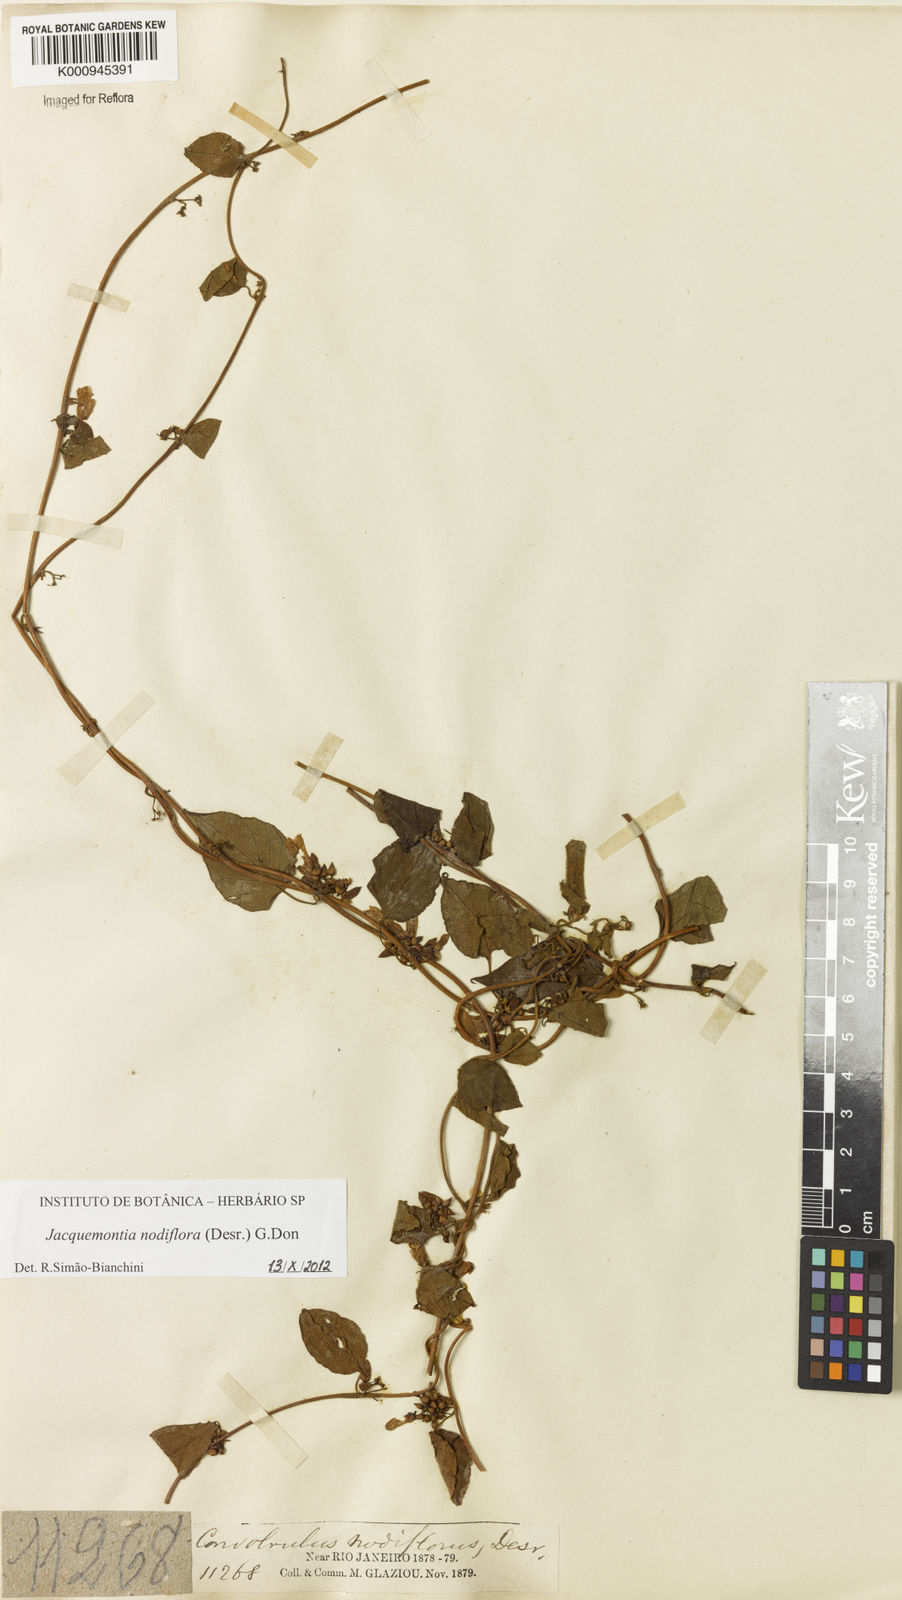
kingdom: Plantae
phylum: Tracheophyta
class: Magnoliopsida
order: Solanales
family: Convolvulaceae
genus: Jacquemontia
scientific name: Jacquemontia nodiflora
